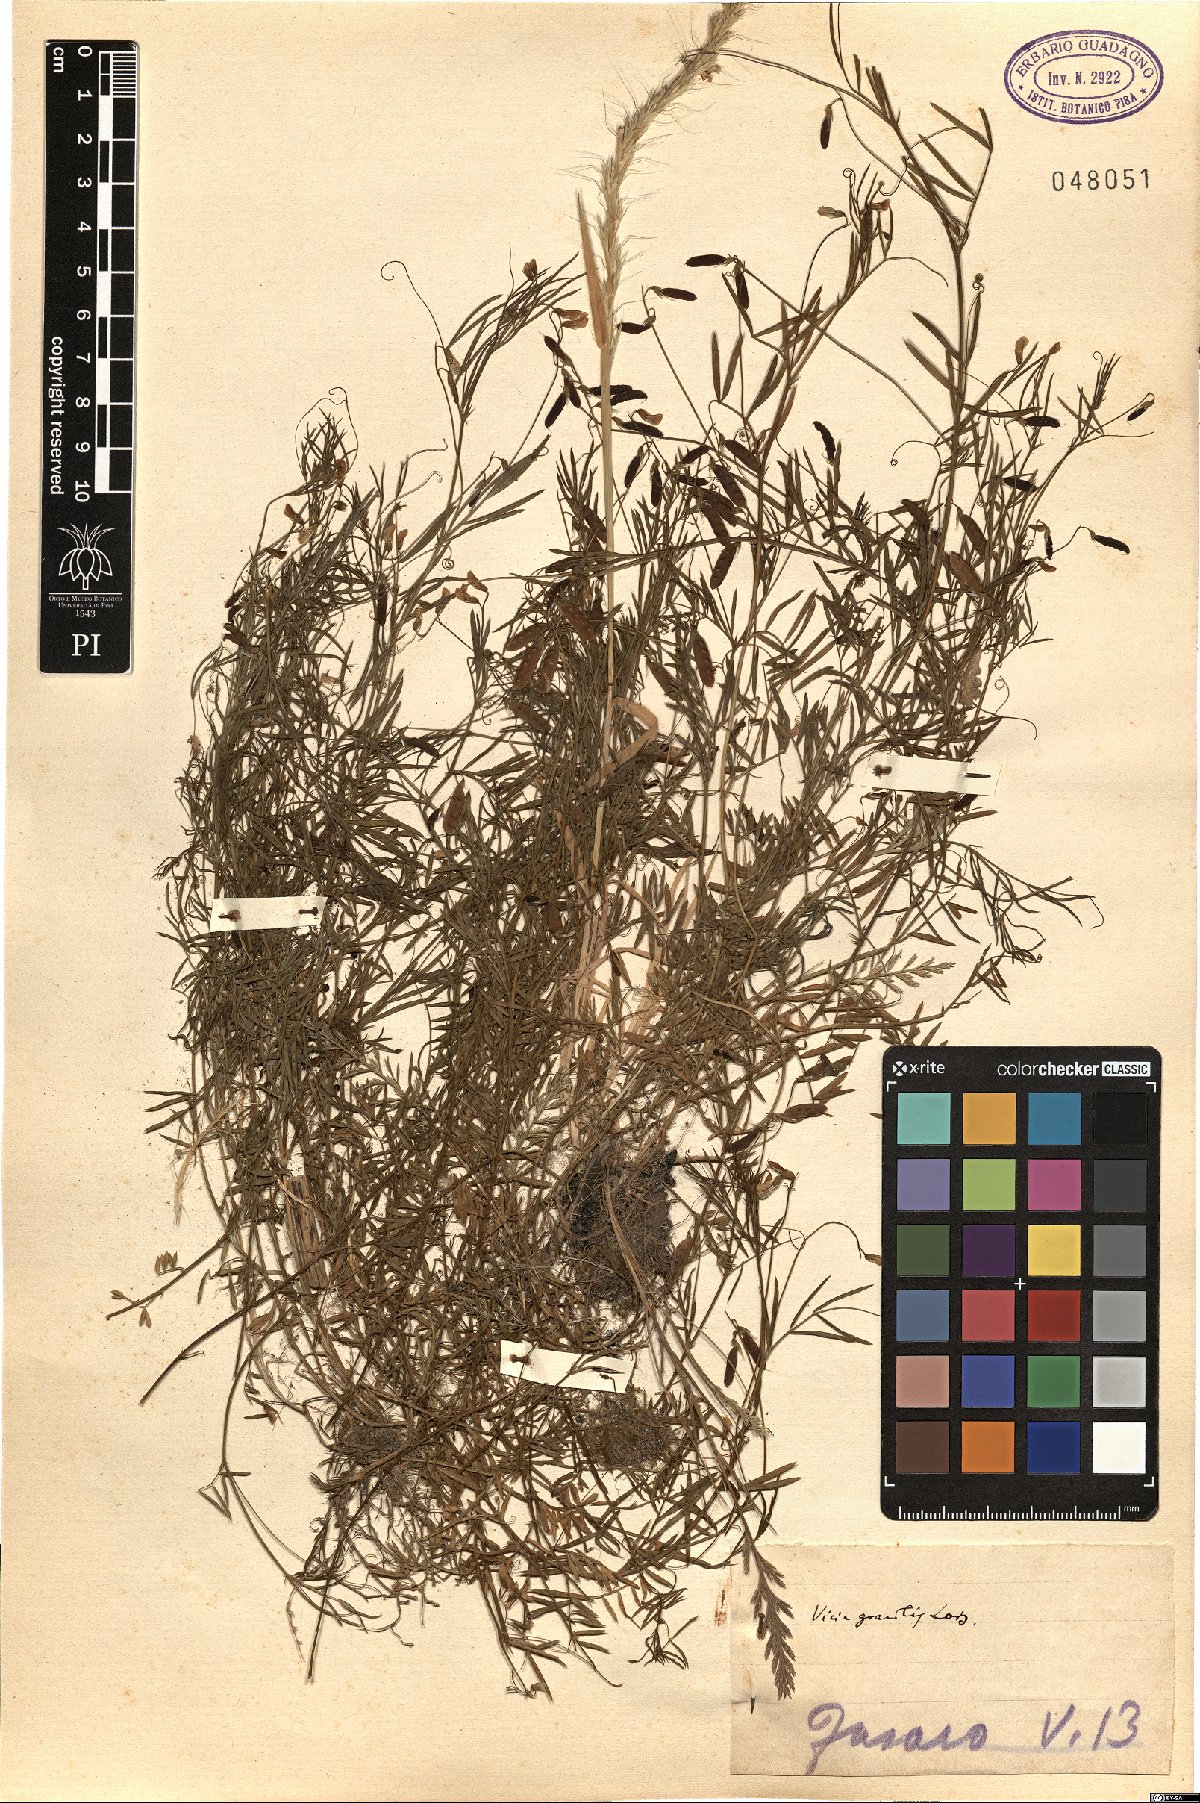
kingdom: Plantae
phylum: Tracheophyta
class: Magnoliopsida
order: Fabales
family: Fabaceae
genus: Vicia
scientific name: Vicia parviflora
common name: Slender tare
